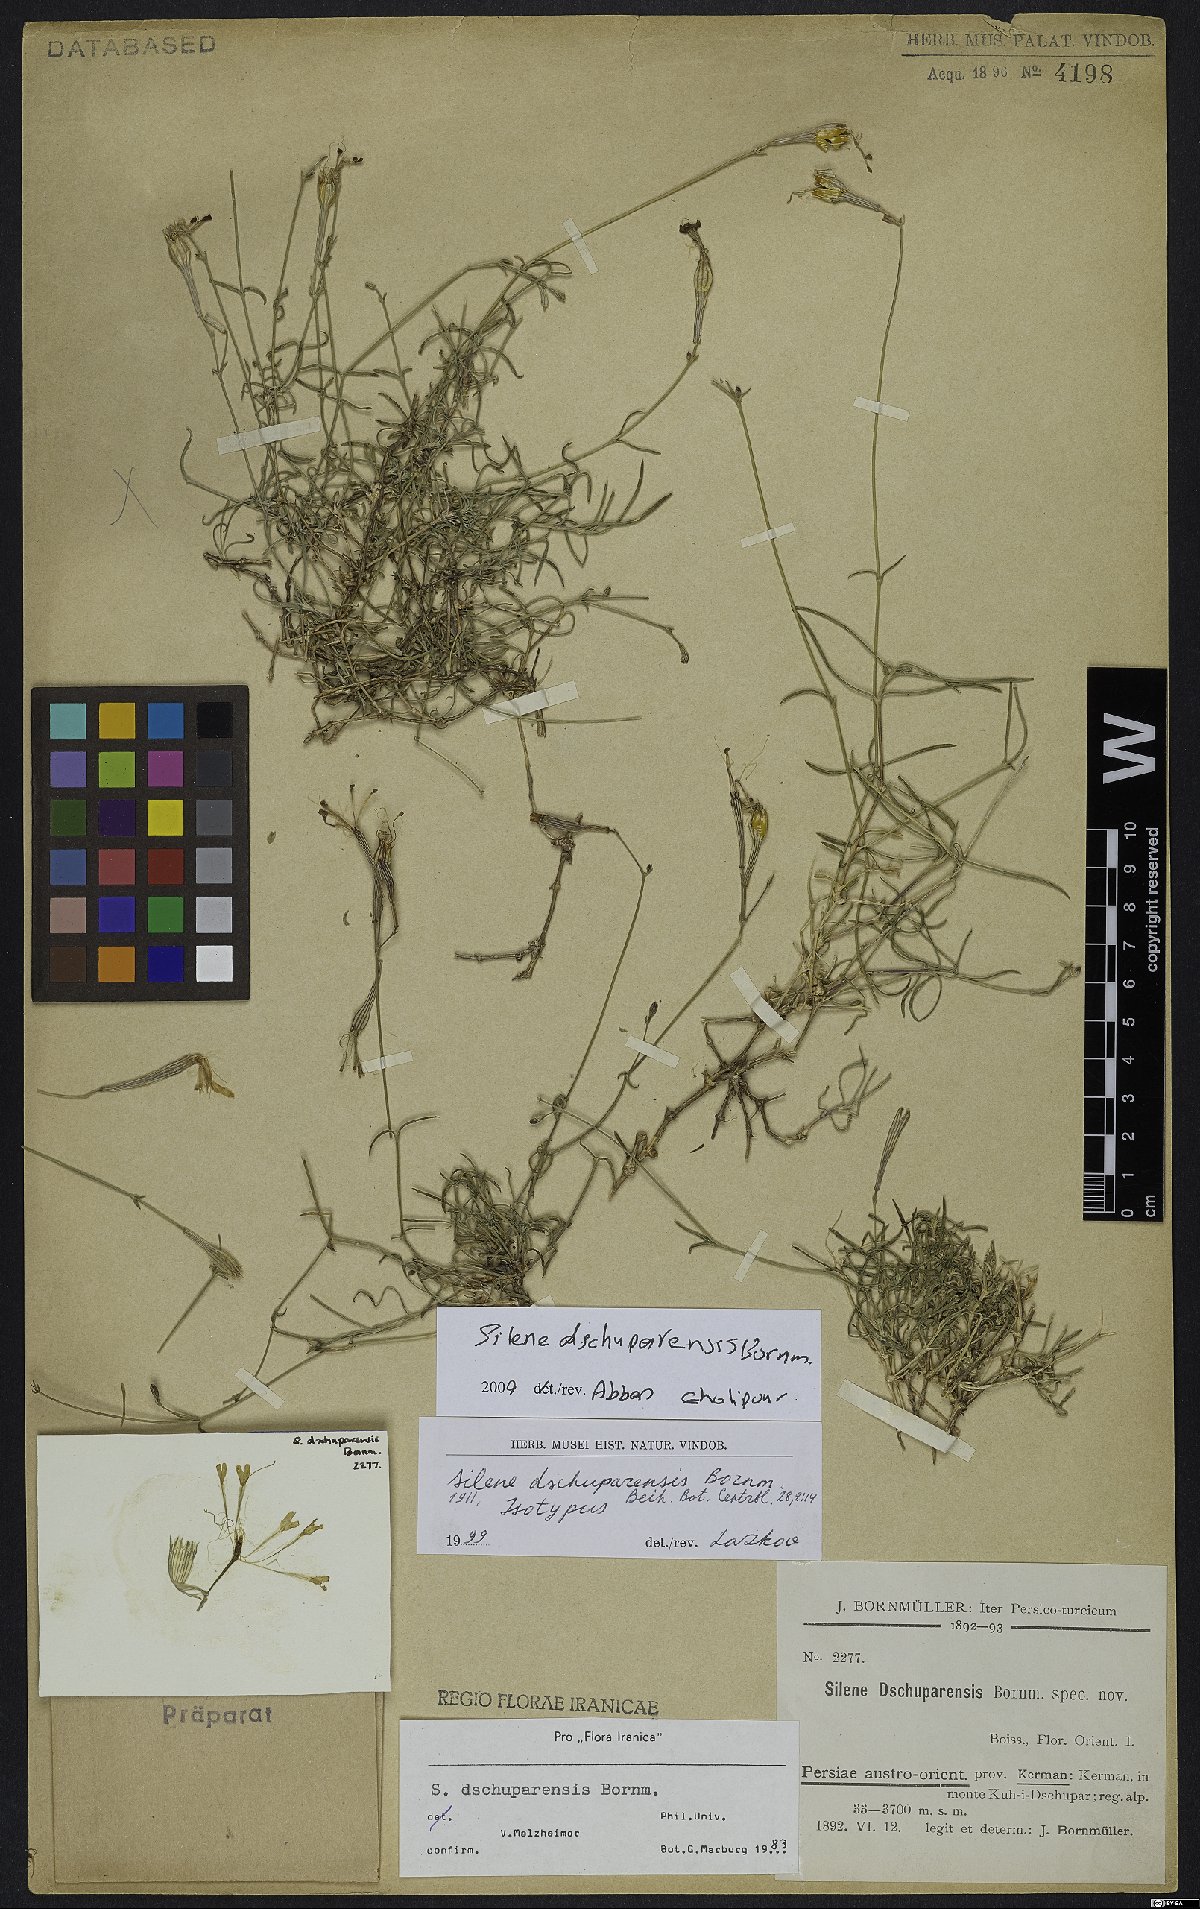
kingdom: Plantae
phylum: Tracheophyta
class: Magnoliopsida
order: Caryophyllales
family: Caryophyllaceae
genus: Silene
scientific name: Silene dschuparensis
